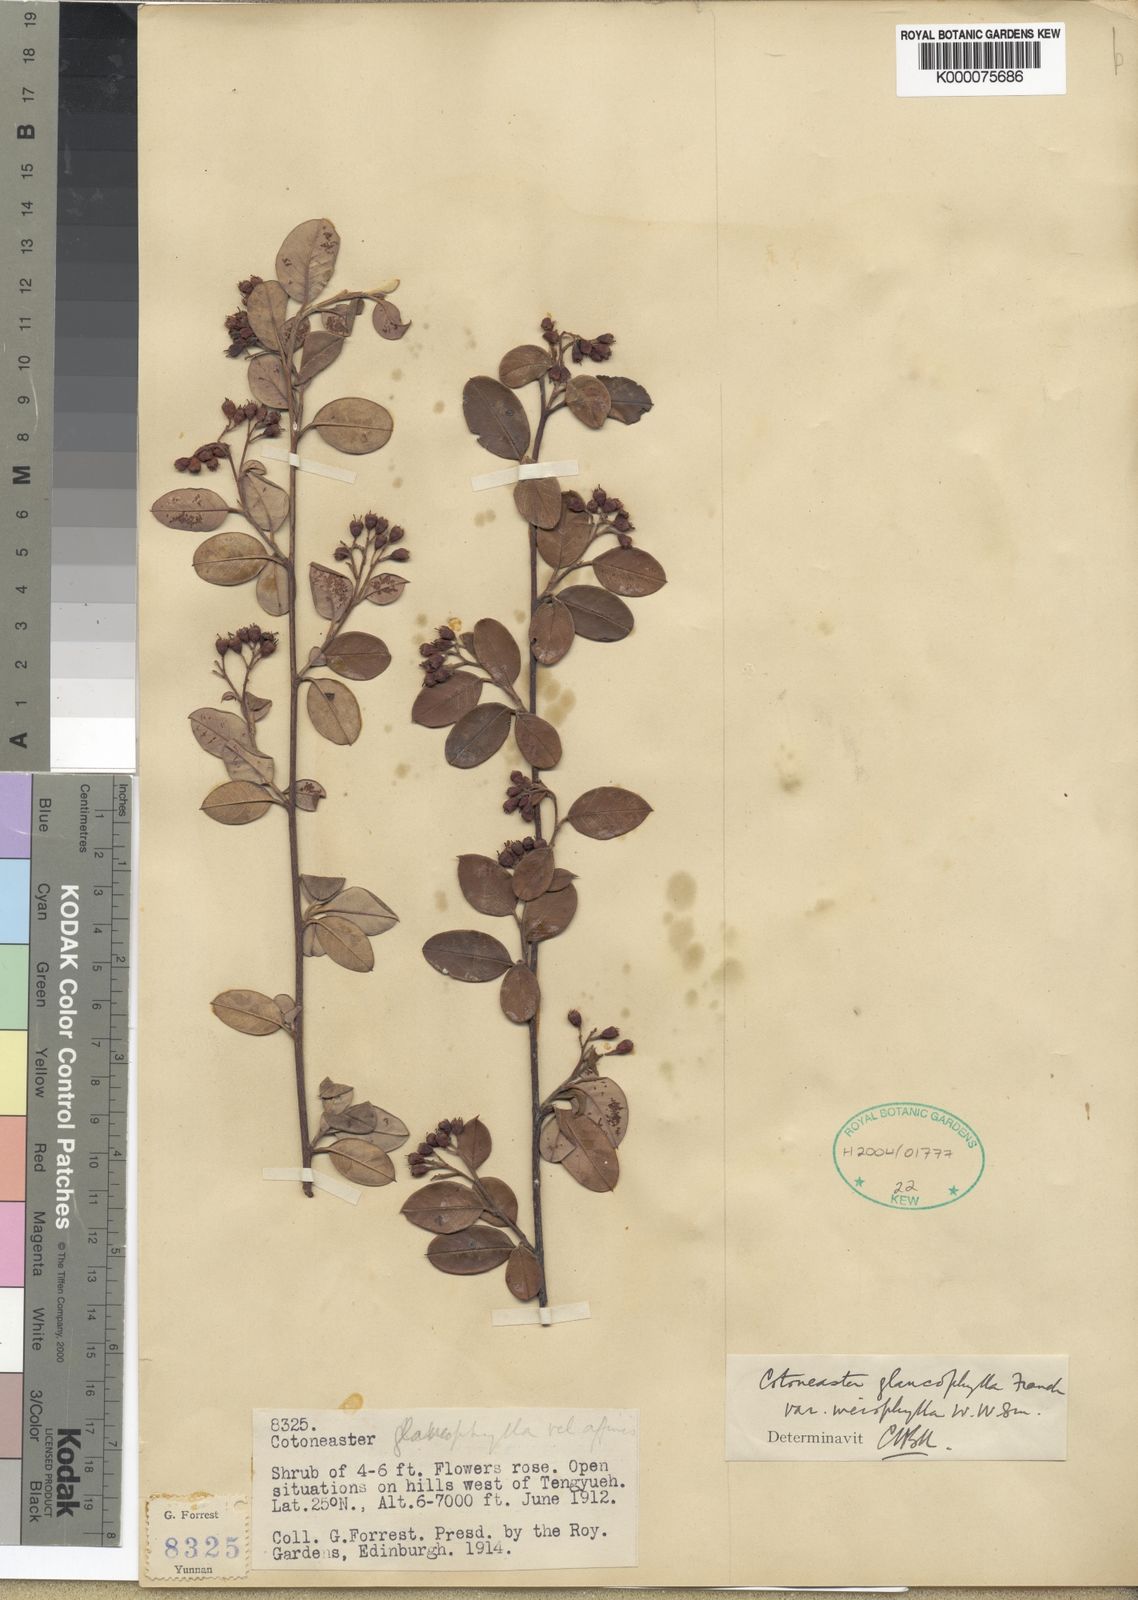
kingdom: Plantae
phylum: Tracheophyta
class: Magnoliopsida
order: Rosales
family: Rosaceae
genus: Cotoneaster
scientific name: Cotoneaster glaucophyllus
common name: Glaucous cotoneaster
